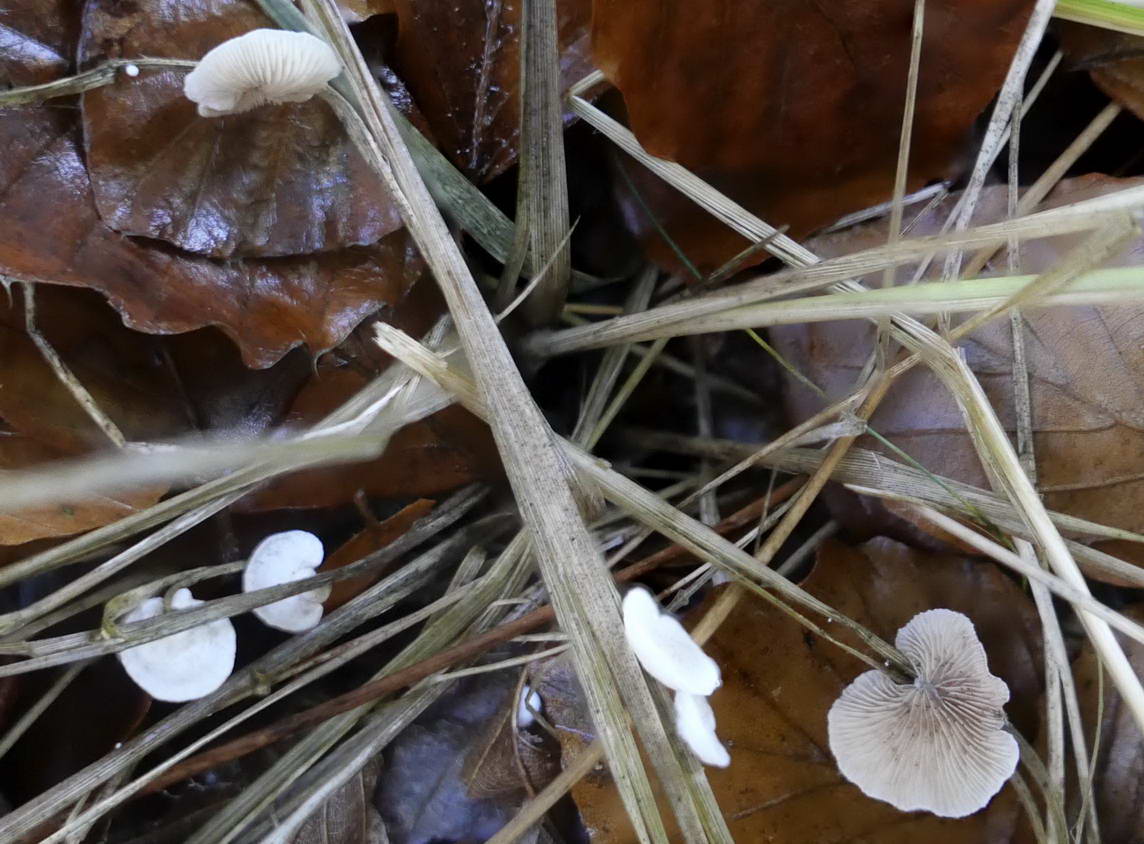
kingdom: Fungi
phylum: Basidiomycota
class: Agaricomycetes
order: Agaricales
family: Crepidotaceae
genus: Crepidotus
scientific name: Crepidotus
